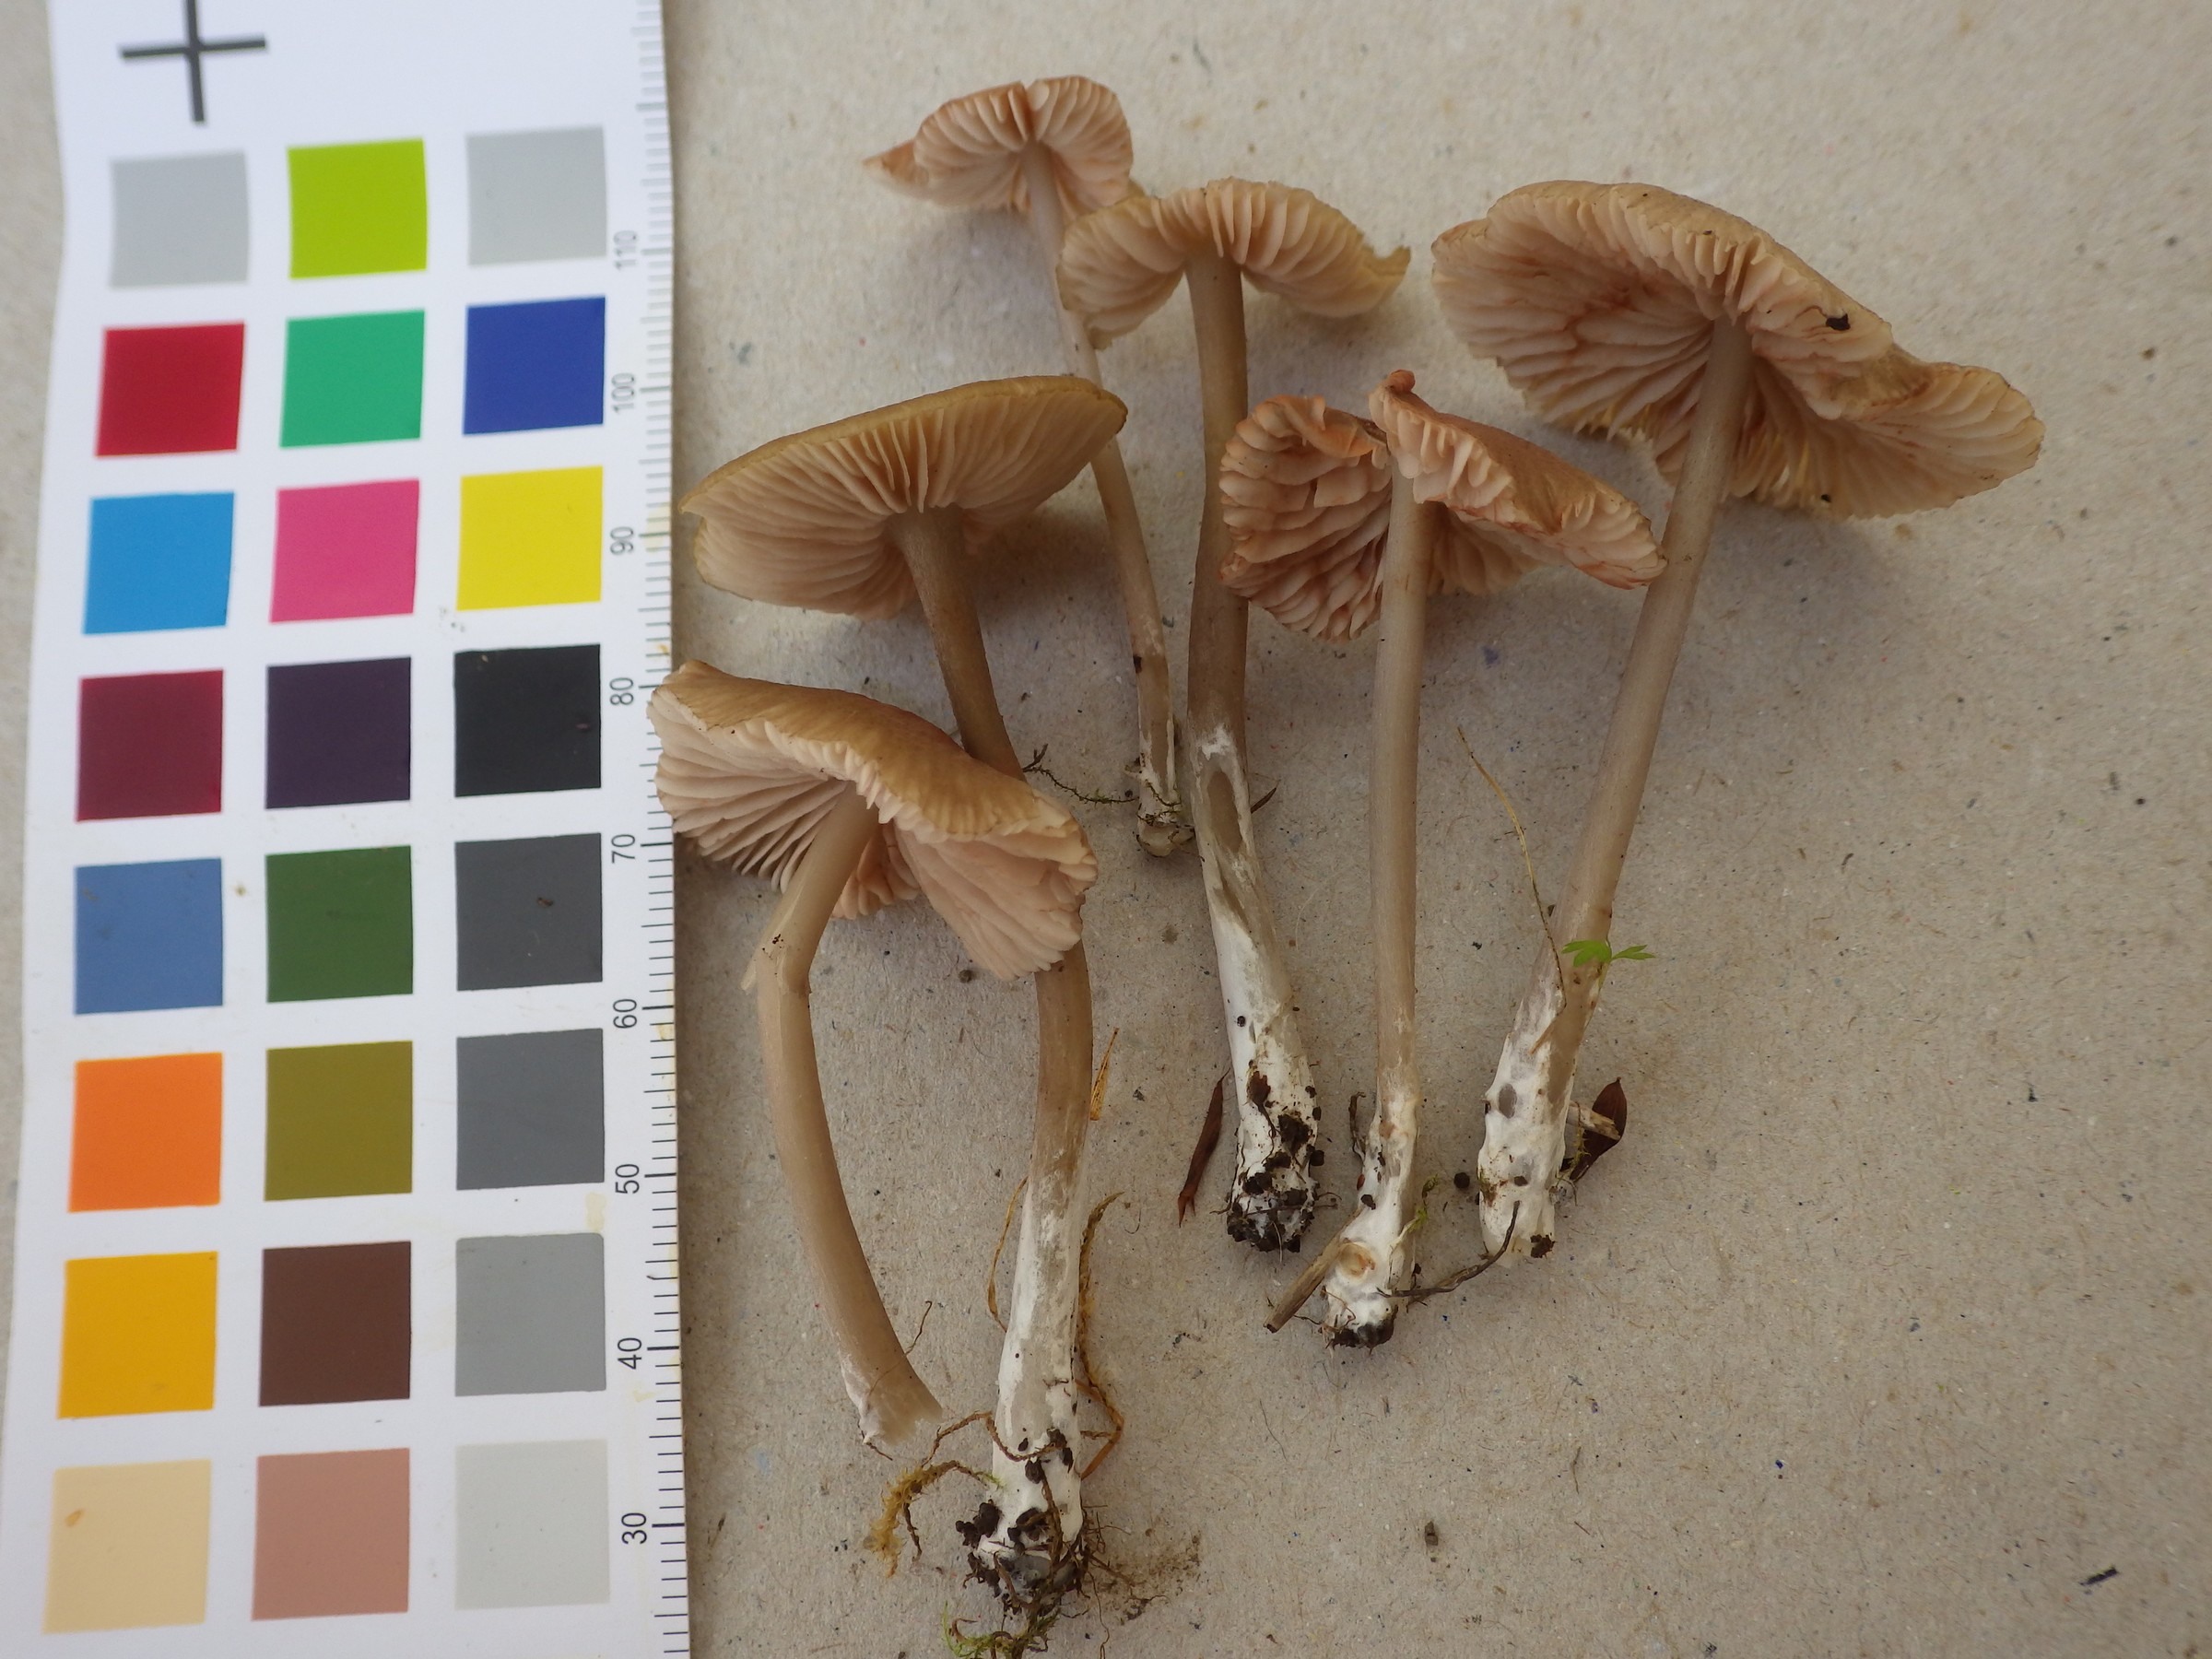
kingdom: Fungi
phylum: Basidiomycota
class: Agaricomycetes
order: Agaricales
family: Entolomataceae
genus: Entoloma
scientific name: Entoloma
